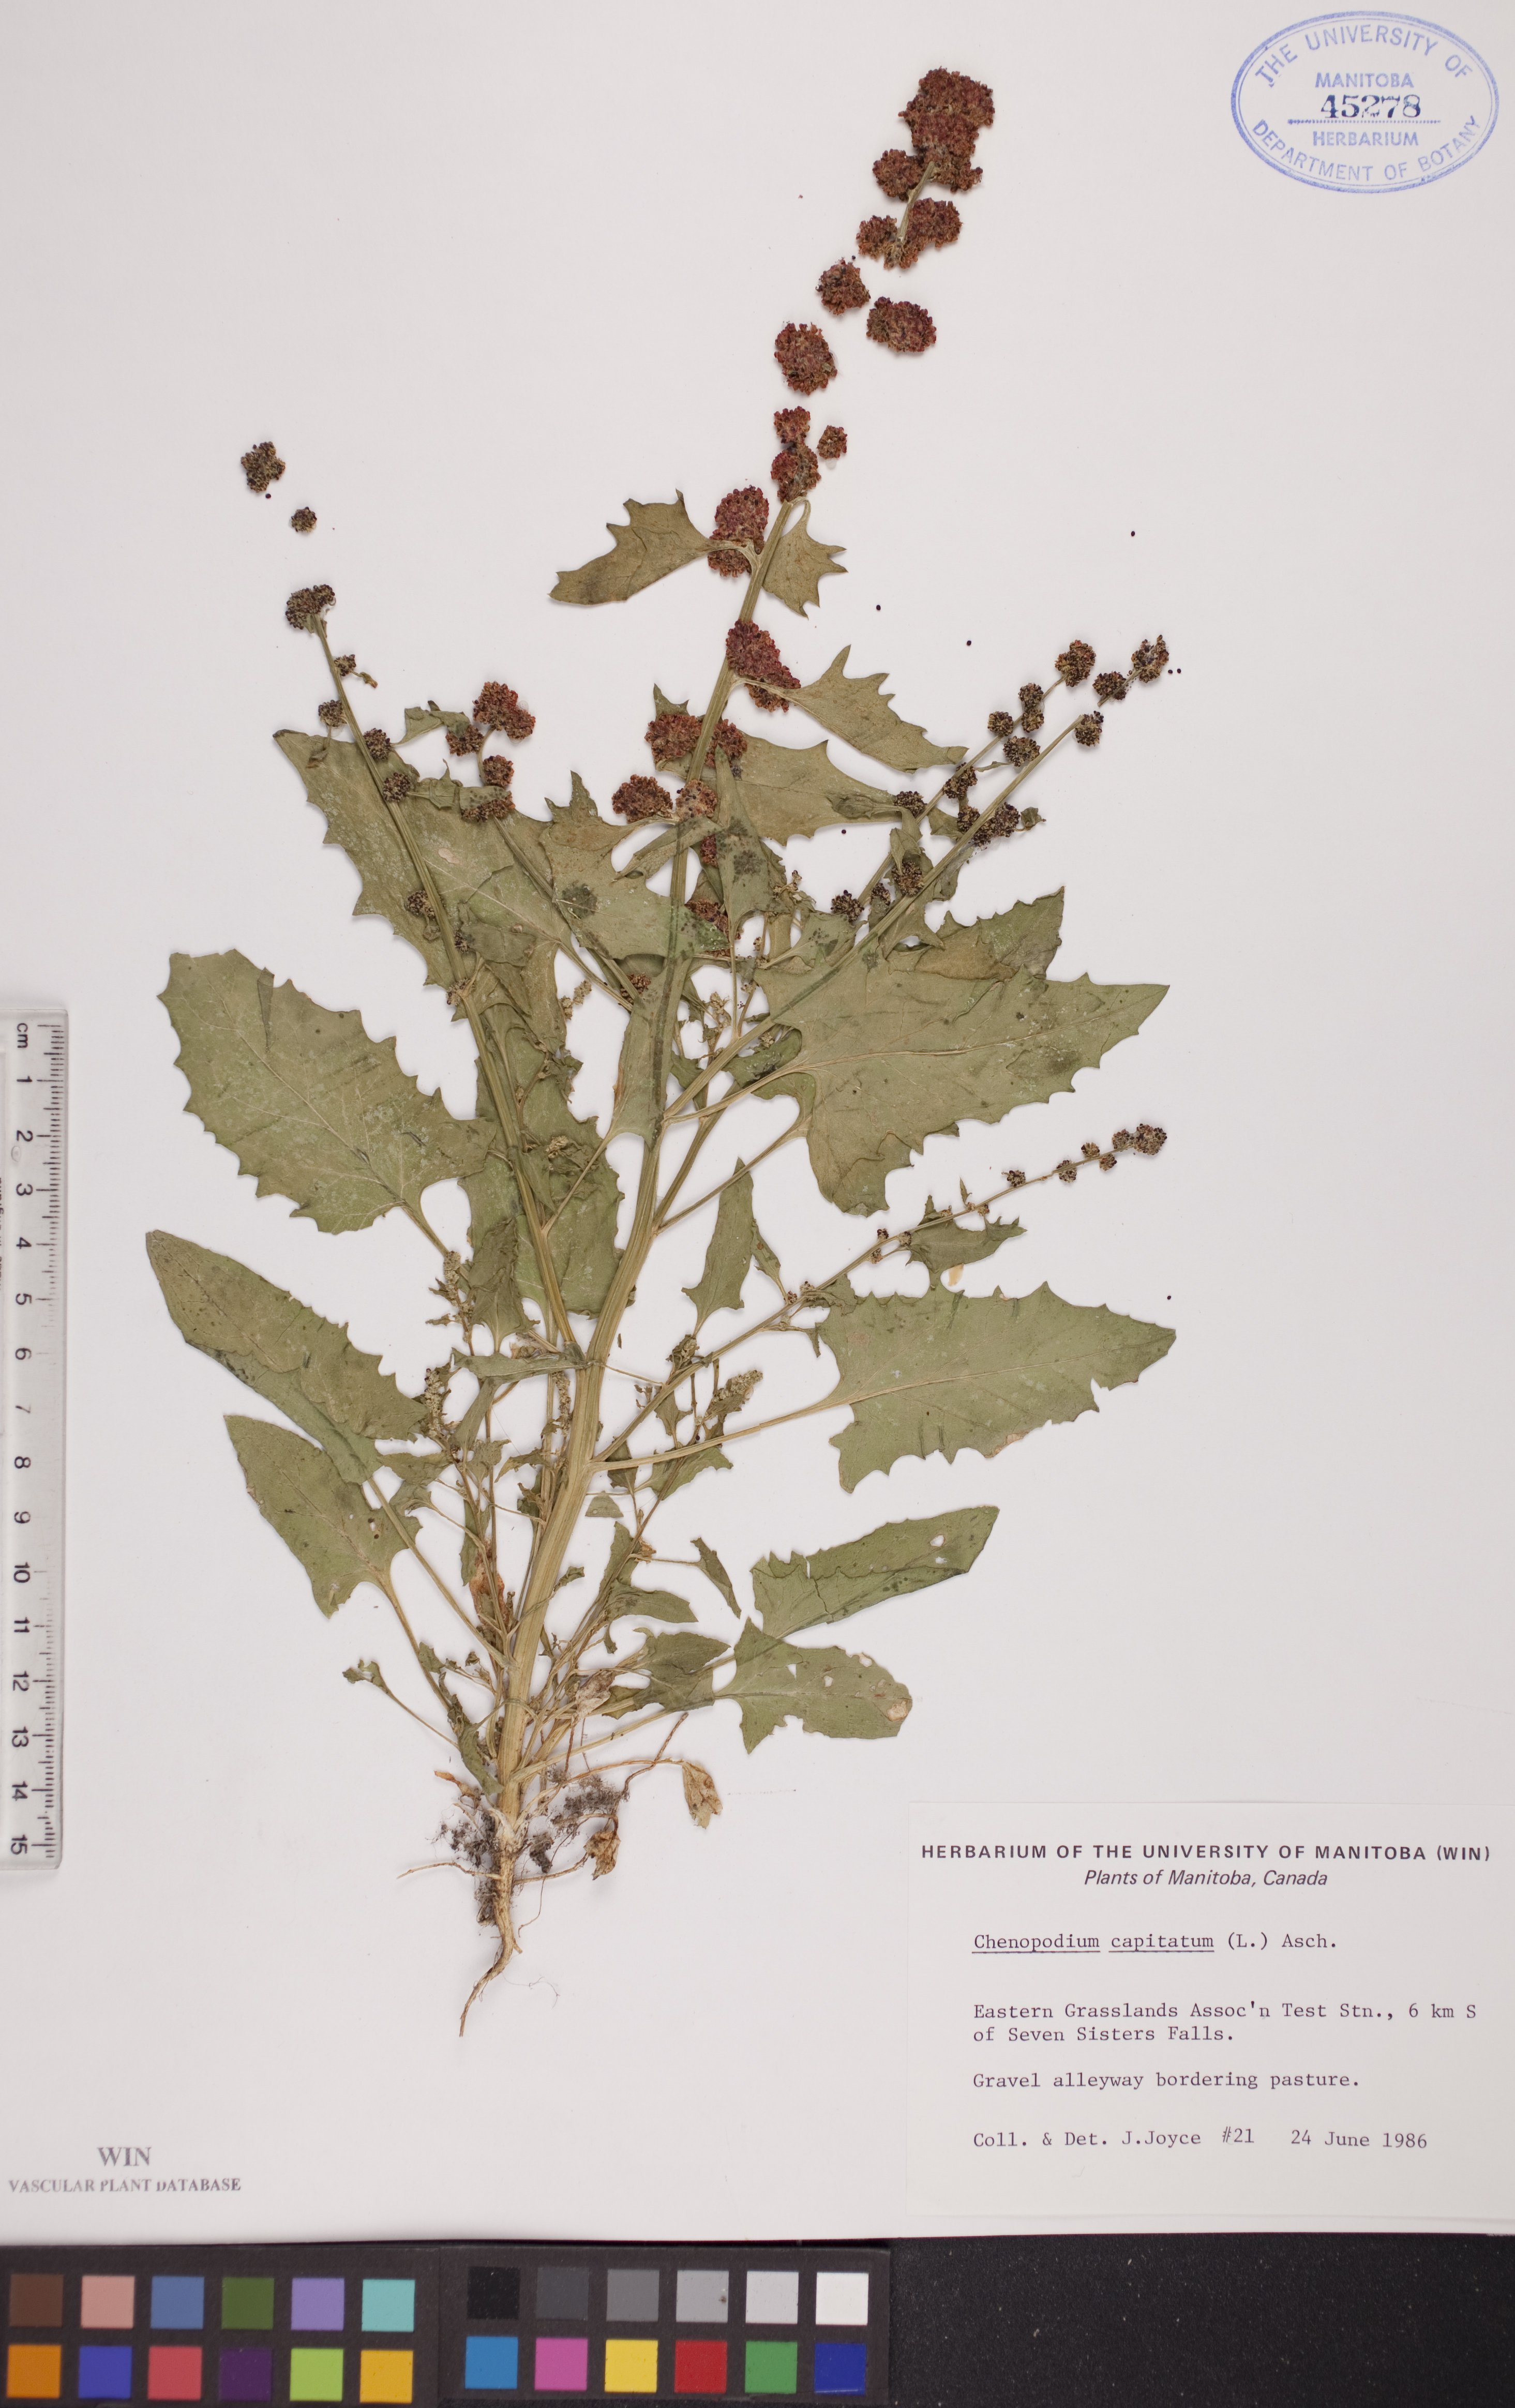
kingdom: Plantae
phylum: Tracheophyta
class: Magnoliopsida
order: Caryophyllales
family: Amaranthaceae
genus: Blitum
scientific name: Blitum capitatum
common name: Strawberry-blight
